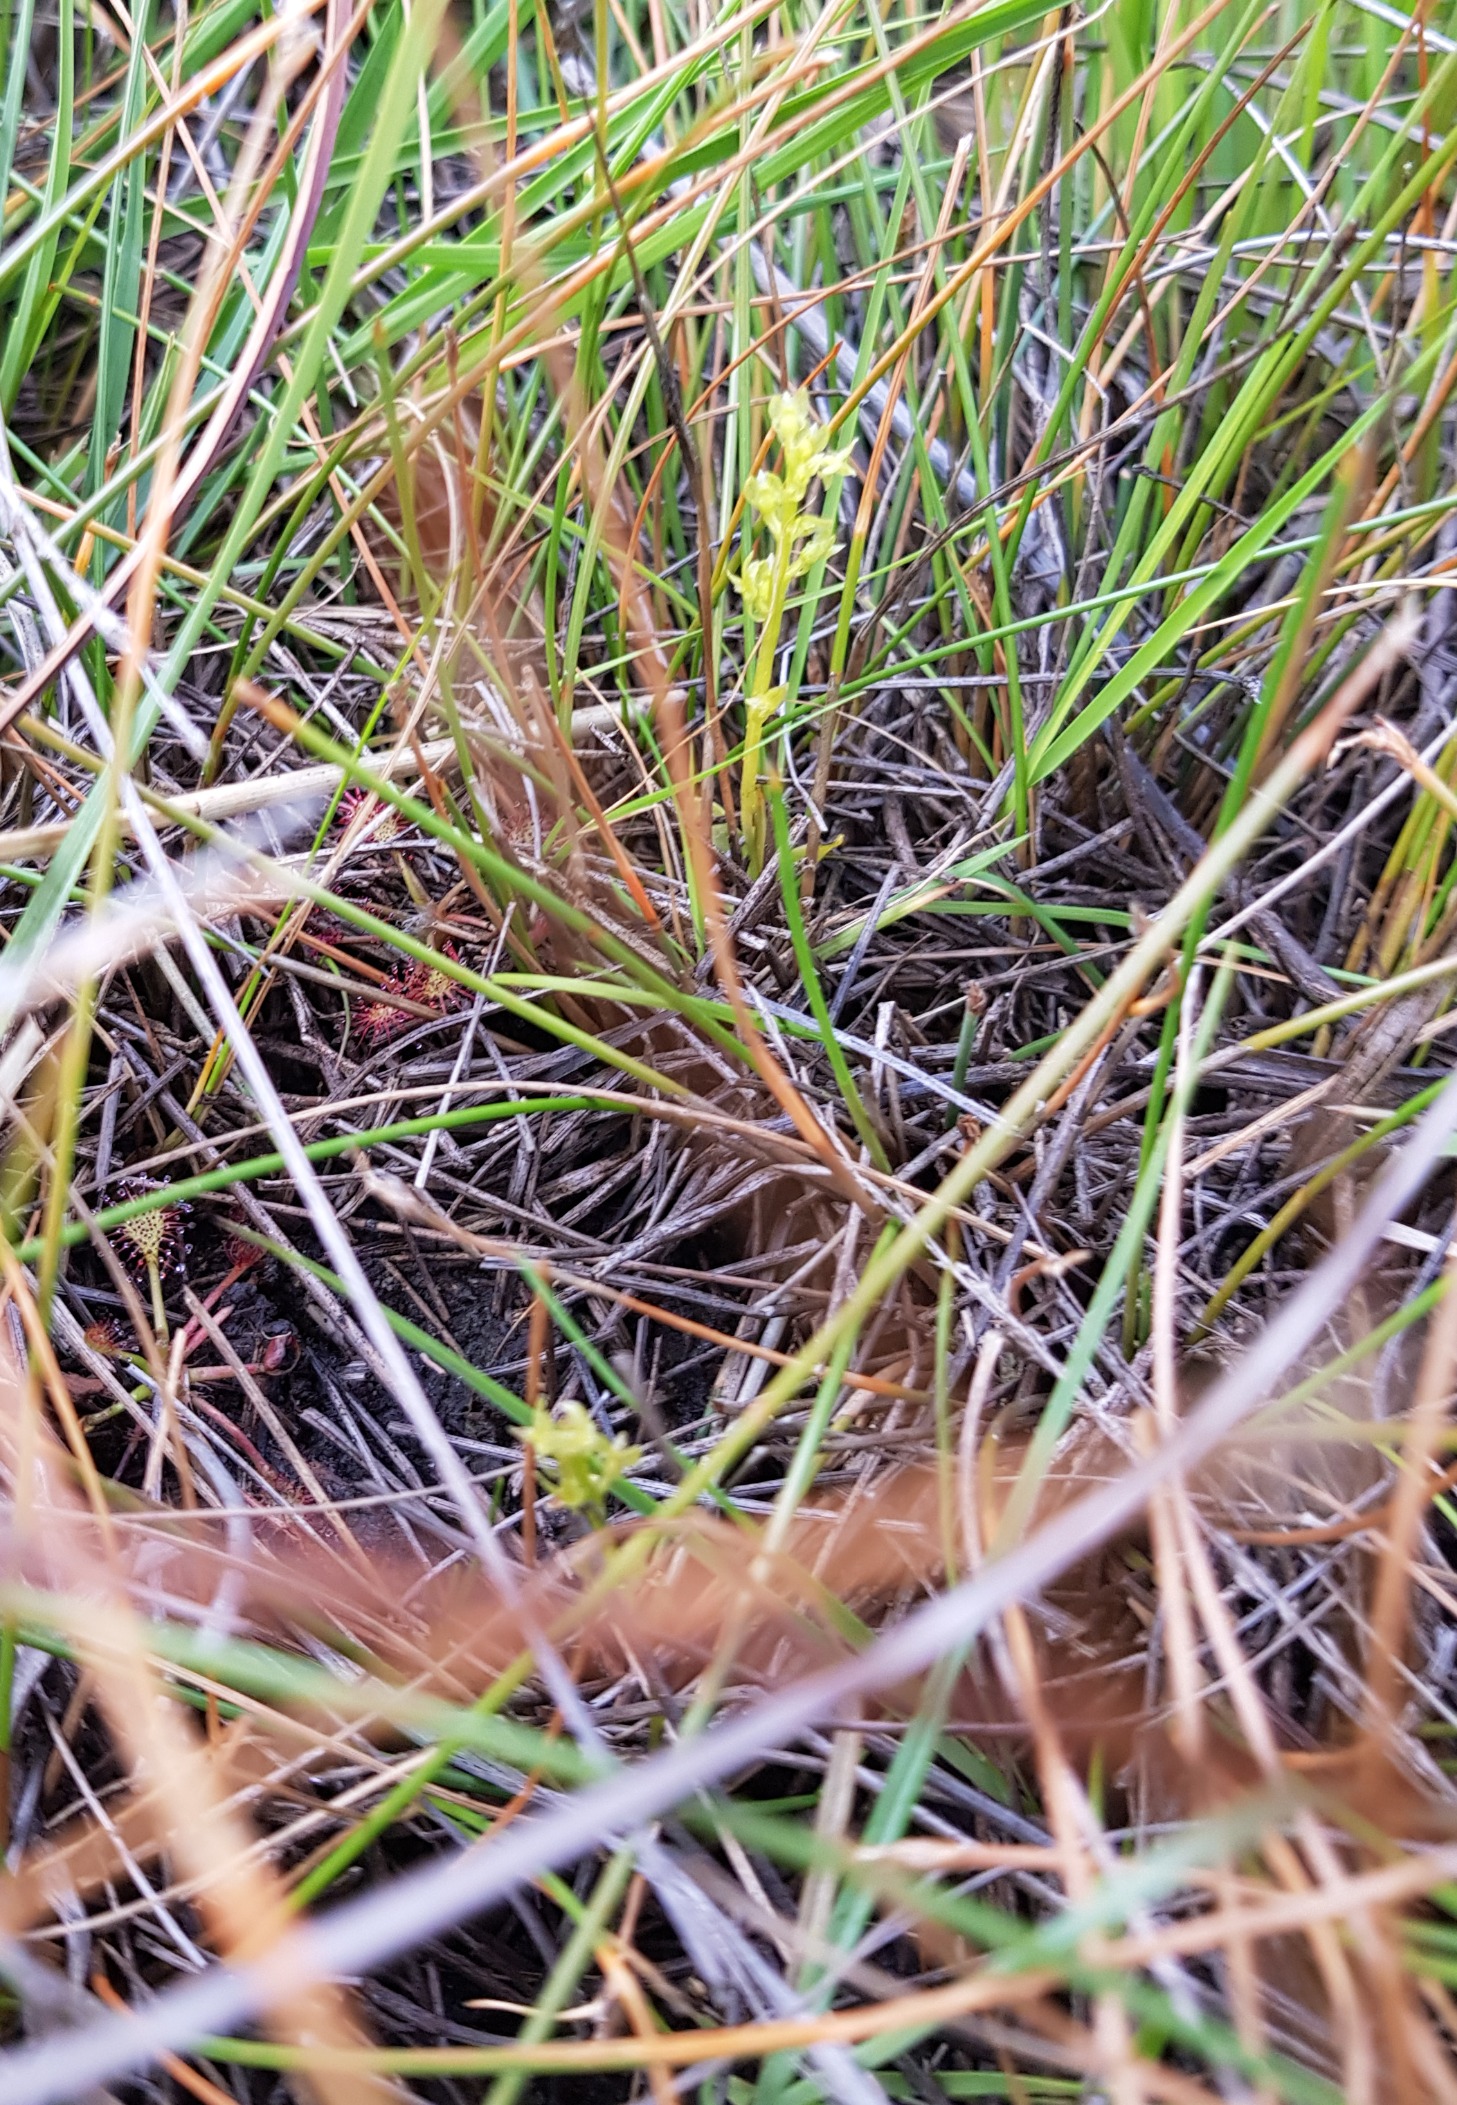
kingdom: Plantae
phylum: Tracheophyta
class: Liliopsida
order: Asparagales
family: Orchidaceae
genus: Hammarbya
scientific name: Hammarbya paludosa
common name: Hjertelæbe
